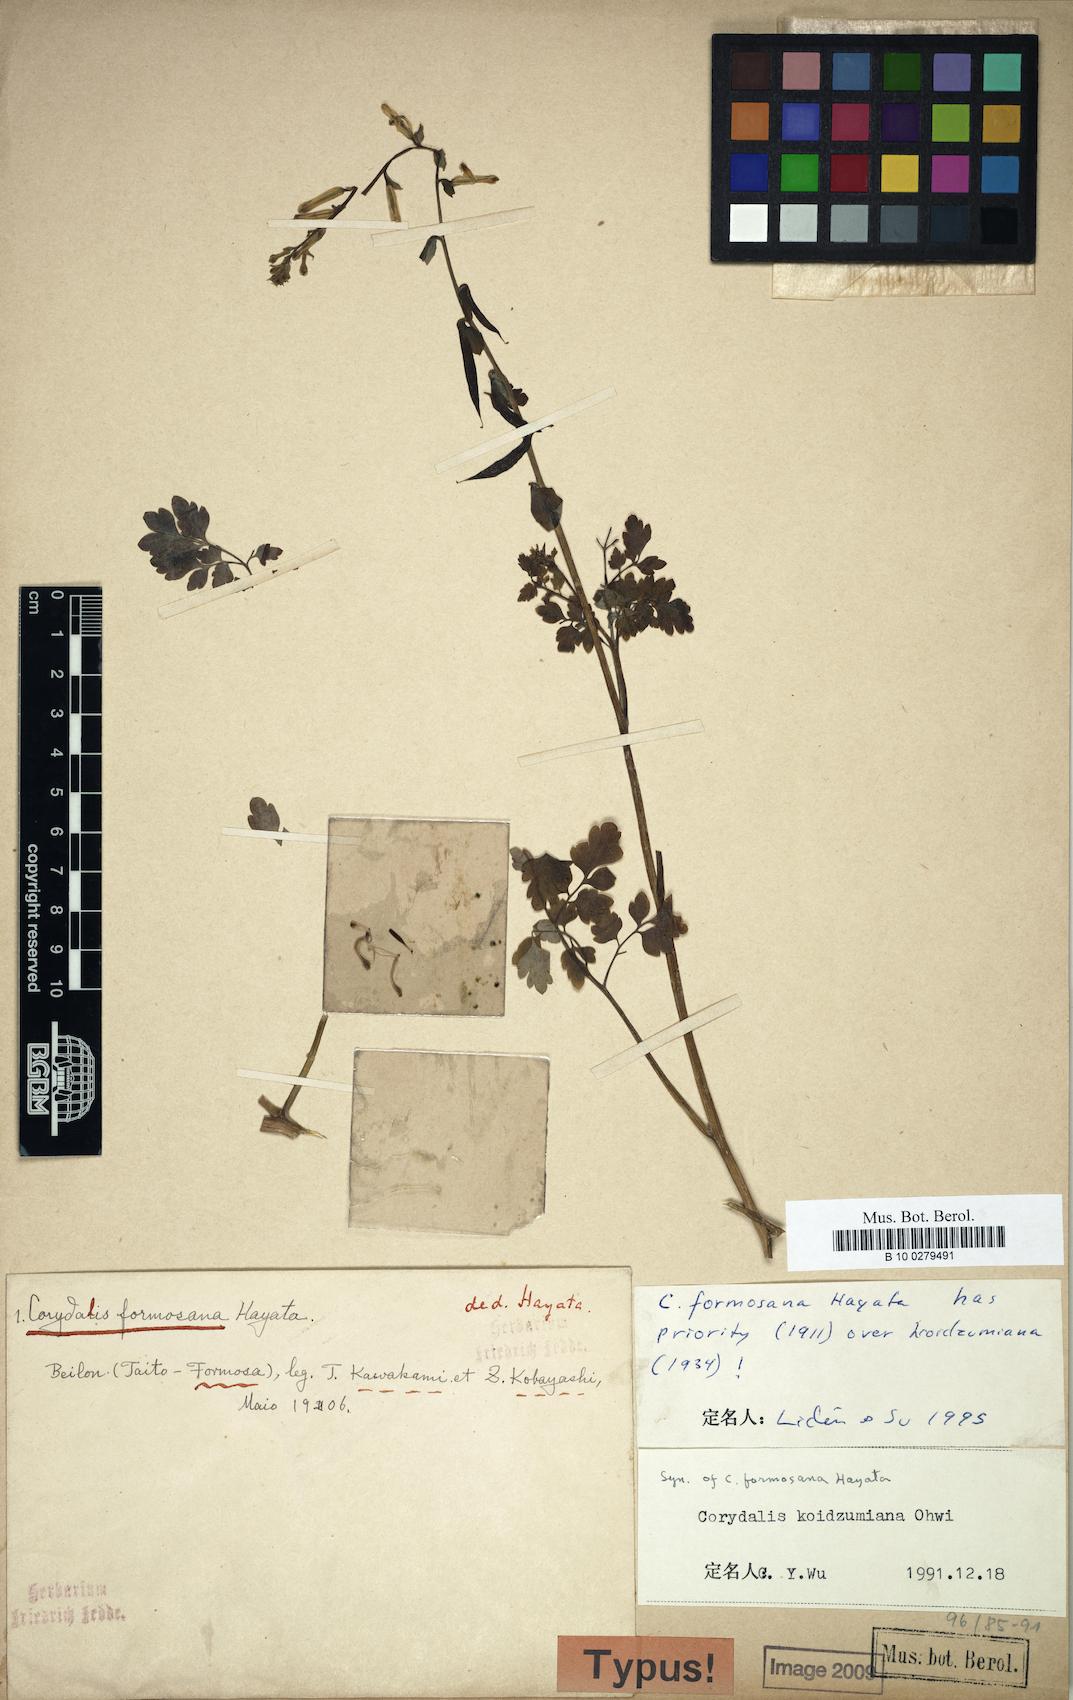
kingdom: Plantae
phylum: Tracheophyta
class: Magnoliopsida
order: Ranunculales
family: Papaveraceae
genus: Corydalis
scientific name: Corydalis balansae
